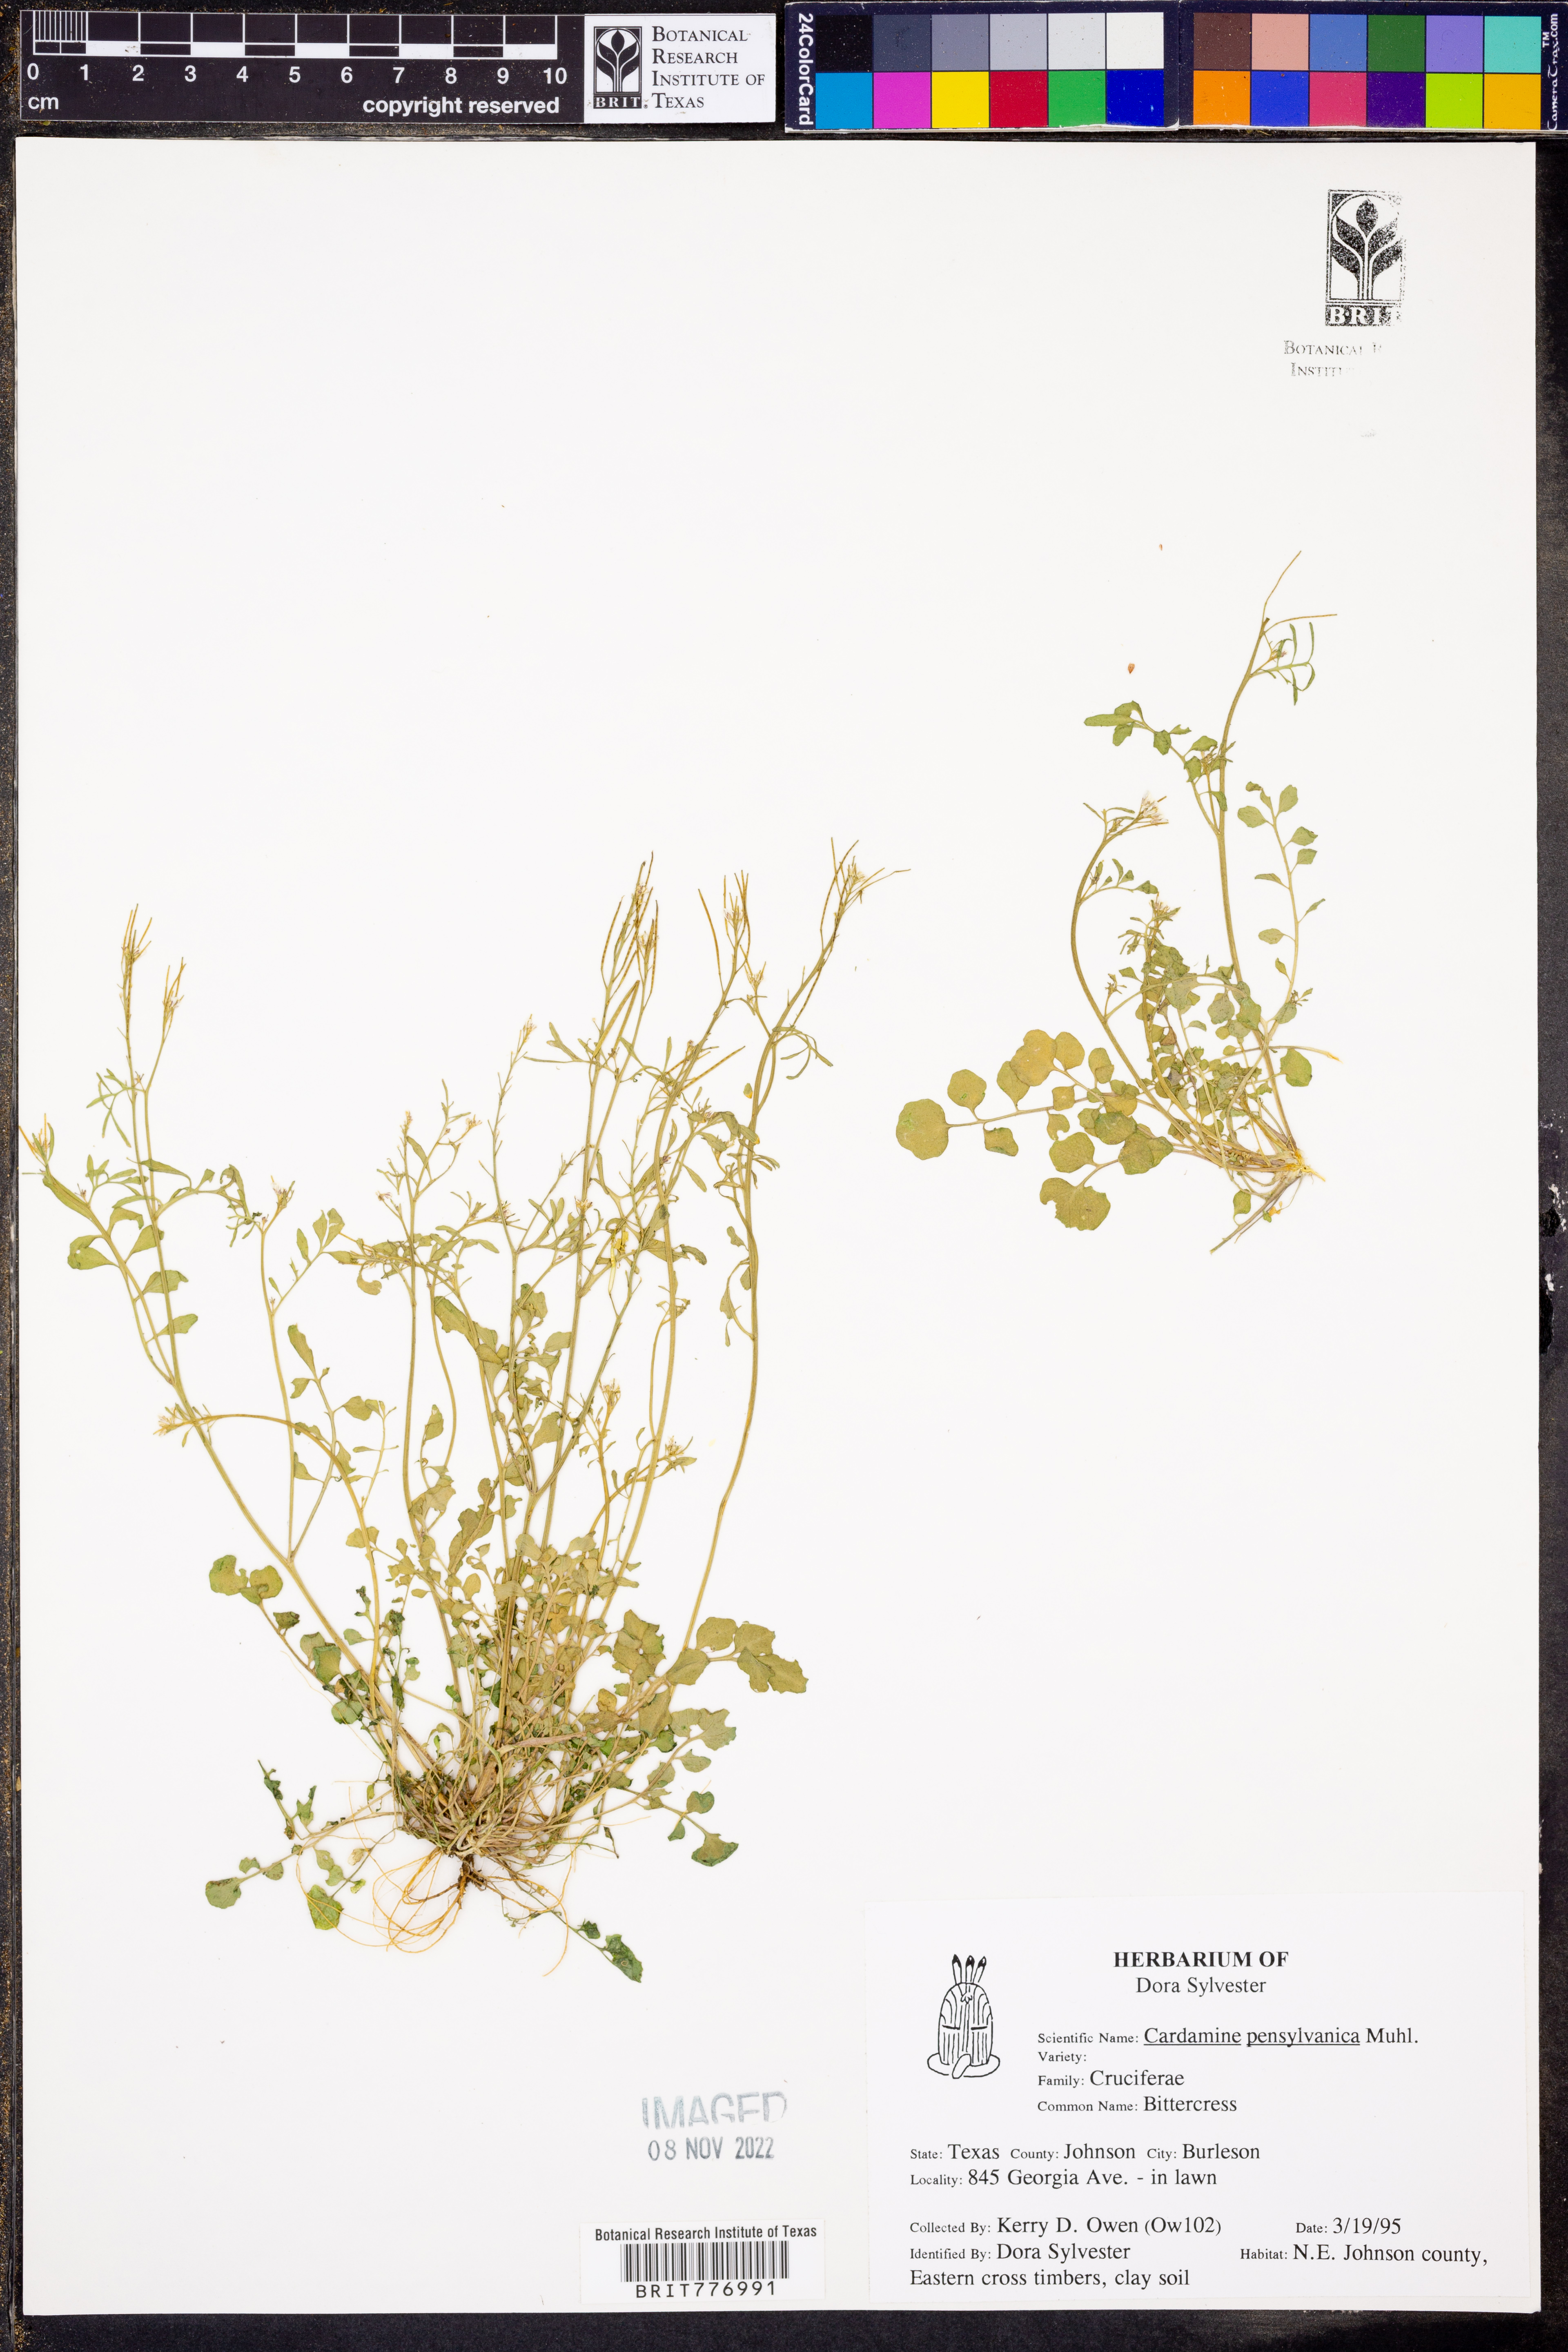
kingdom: Plantae
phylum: Tracheophyta
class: Magnoliopsida
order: Brassicales
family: Brassicaceae
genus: Cardamine
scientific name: Cardamine pensylvanica
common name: Pennsylvania bittercress
